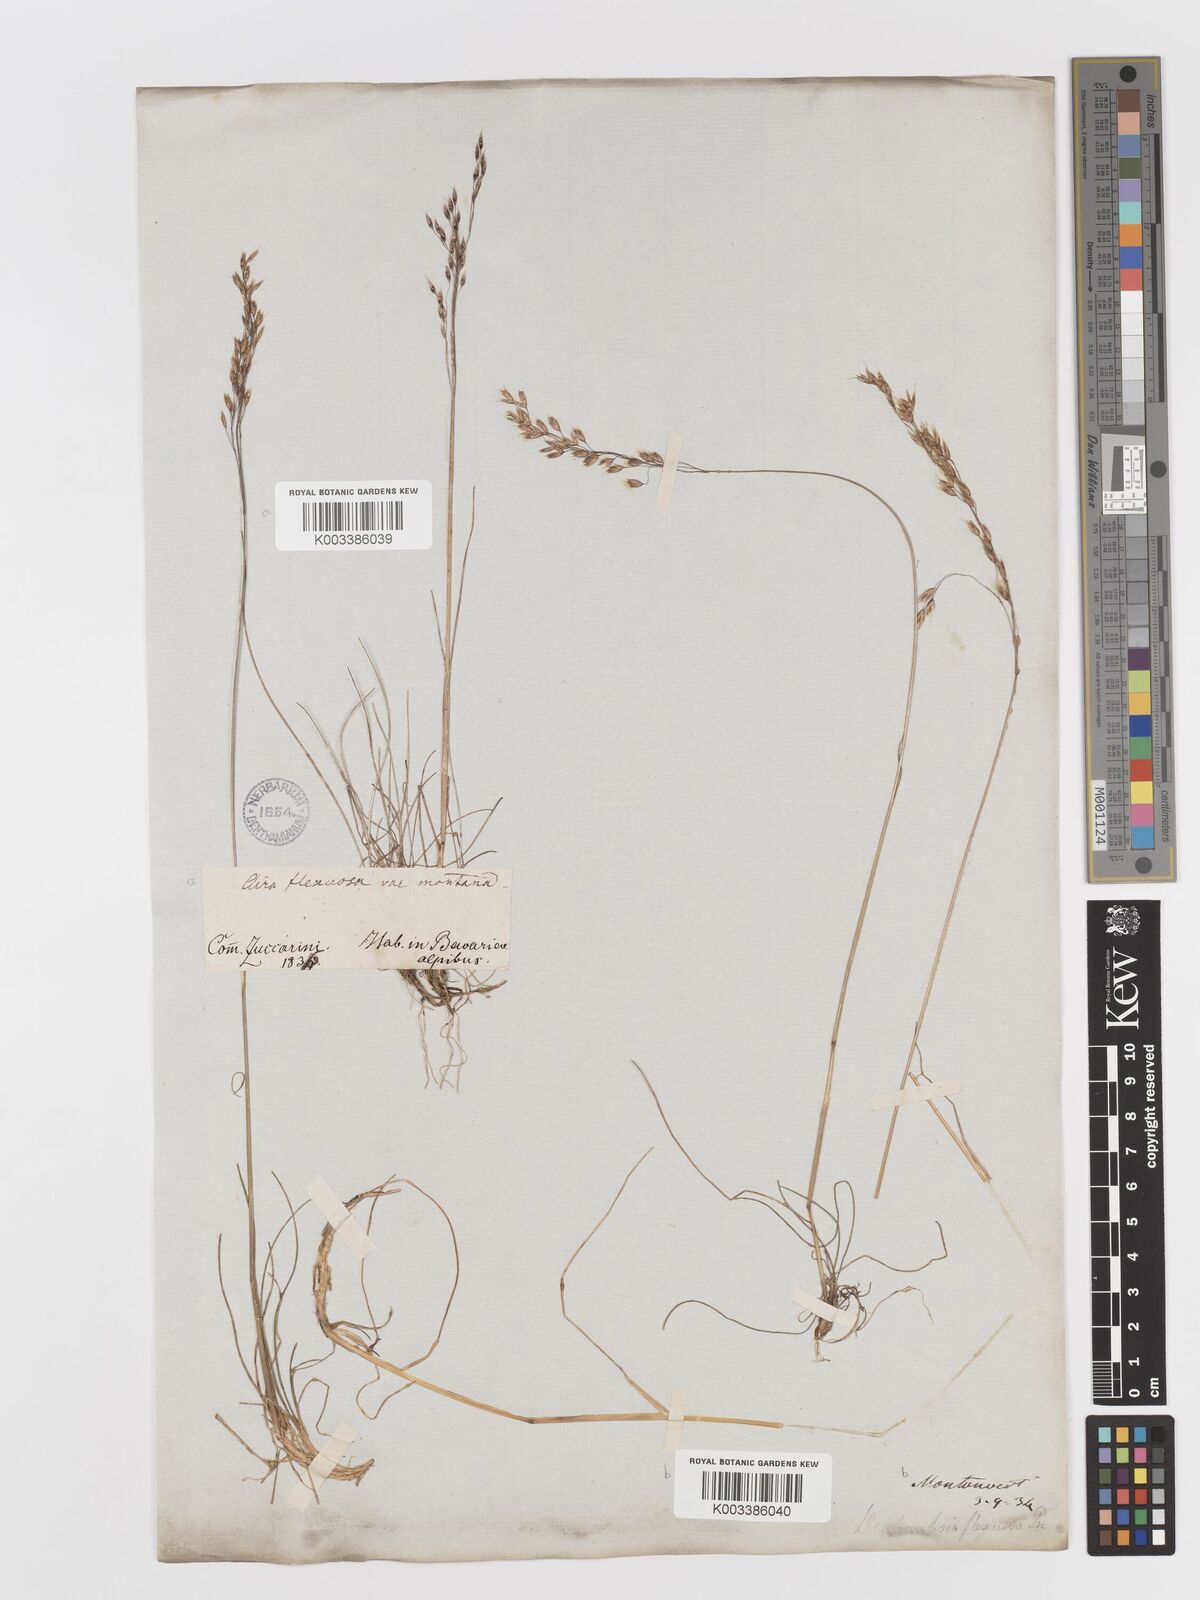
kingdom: Plantae
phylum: Tracheophyta
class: Liliopsida
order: Poales
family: Poaceae
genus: Avenella
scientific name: Avenella flexuosa
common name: Wavy hairgrass
